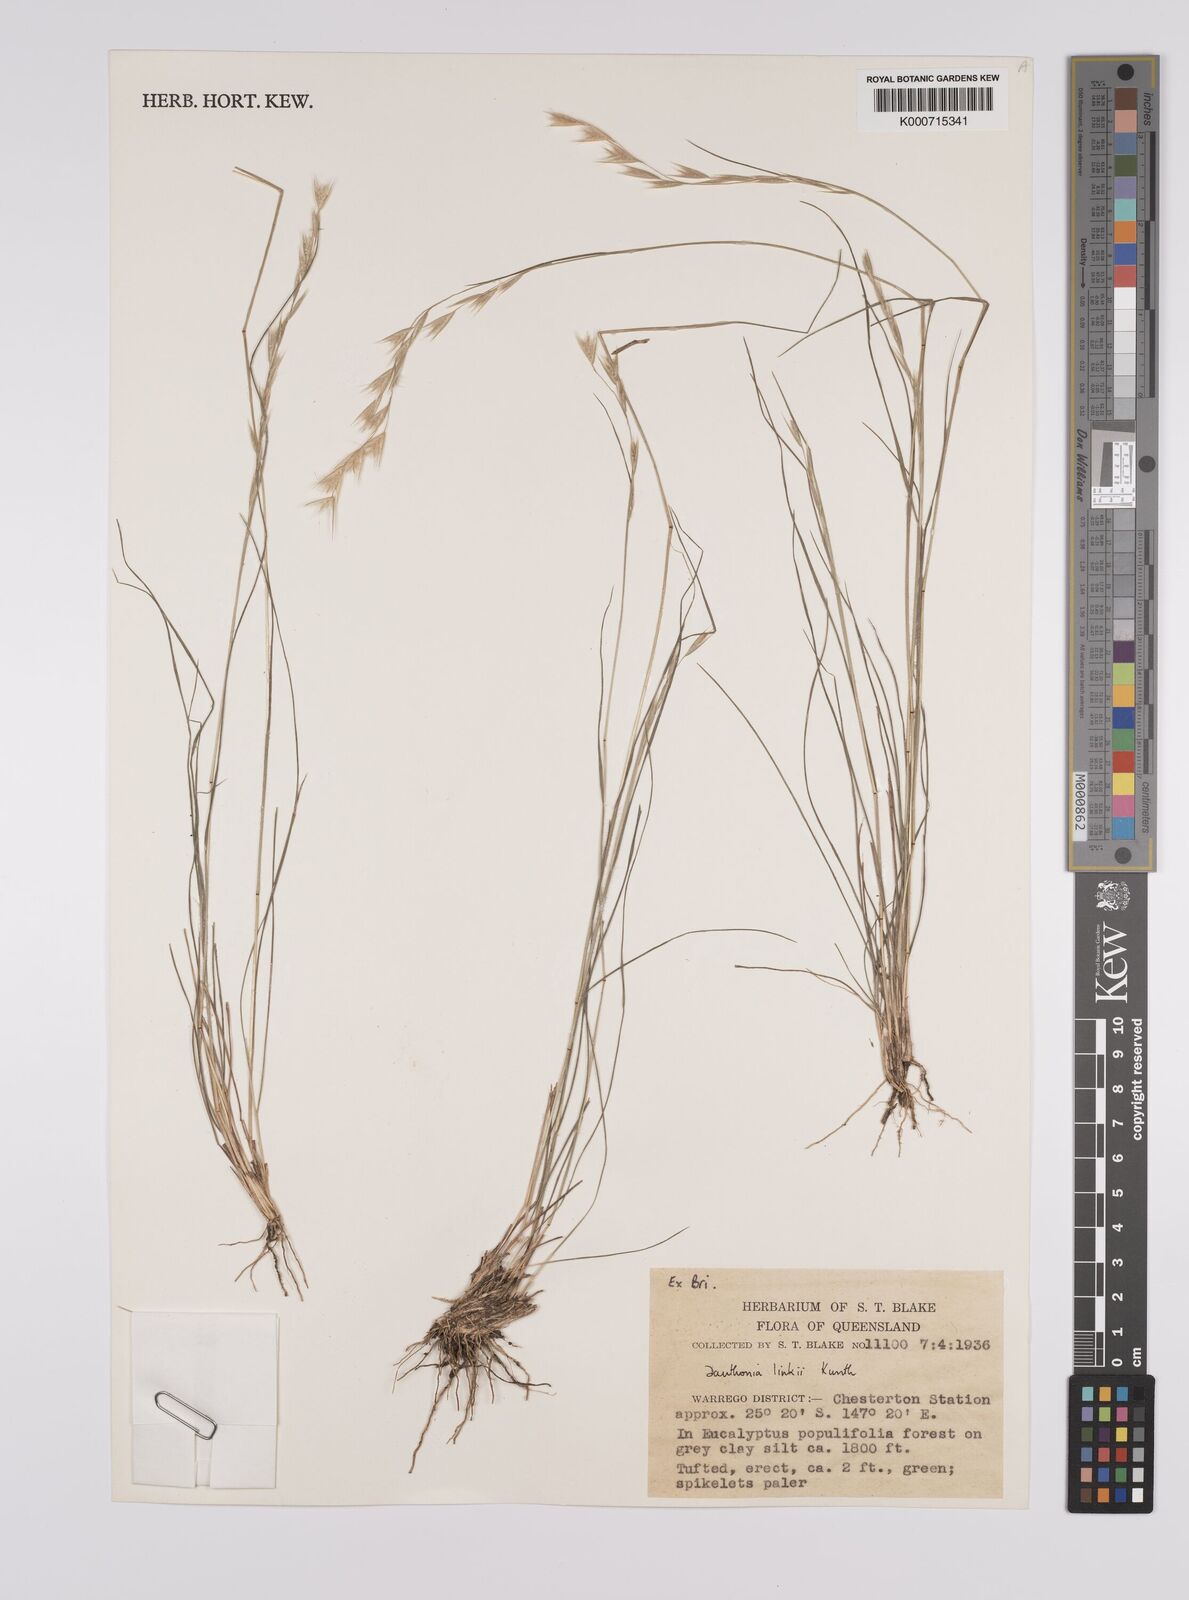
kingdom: Plantae
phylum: Tracheophyta
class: Liliopsida
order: Poales
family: Poaceae
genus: Rytidosperma
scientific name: Rytidosperma bipartitum
